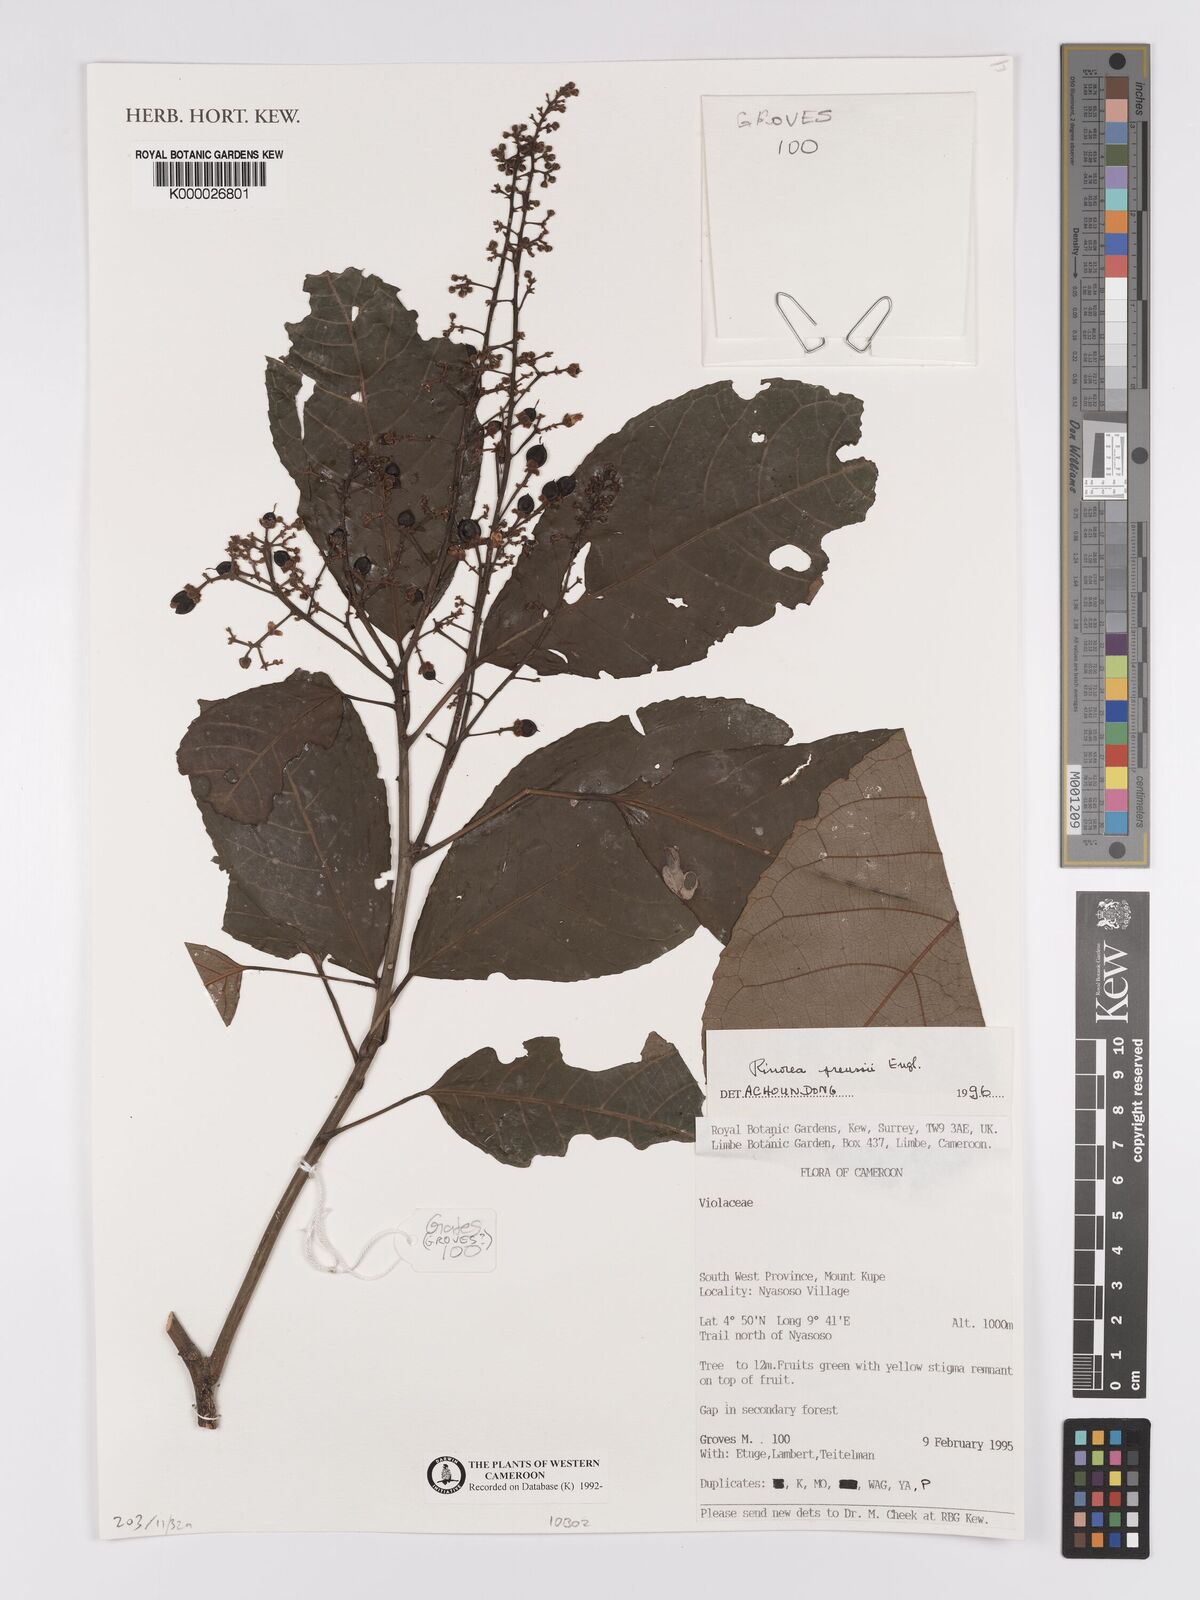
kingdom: Plantae
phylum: Tracheophyta
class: Magnoliopsida
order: Malpighiales
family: Violaceae
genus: Rinorea
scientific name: Rinorea preussii
